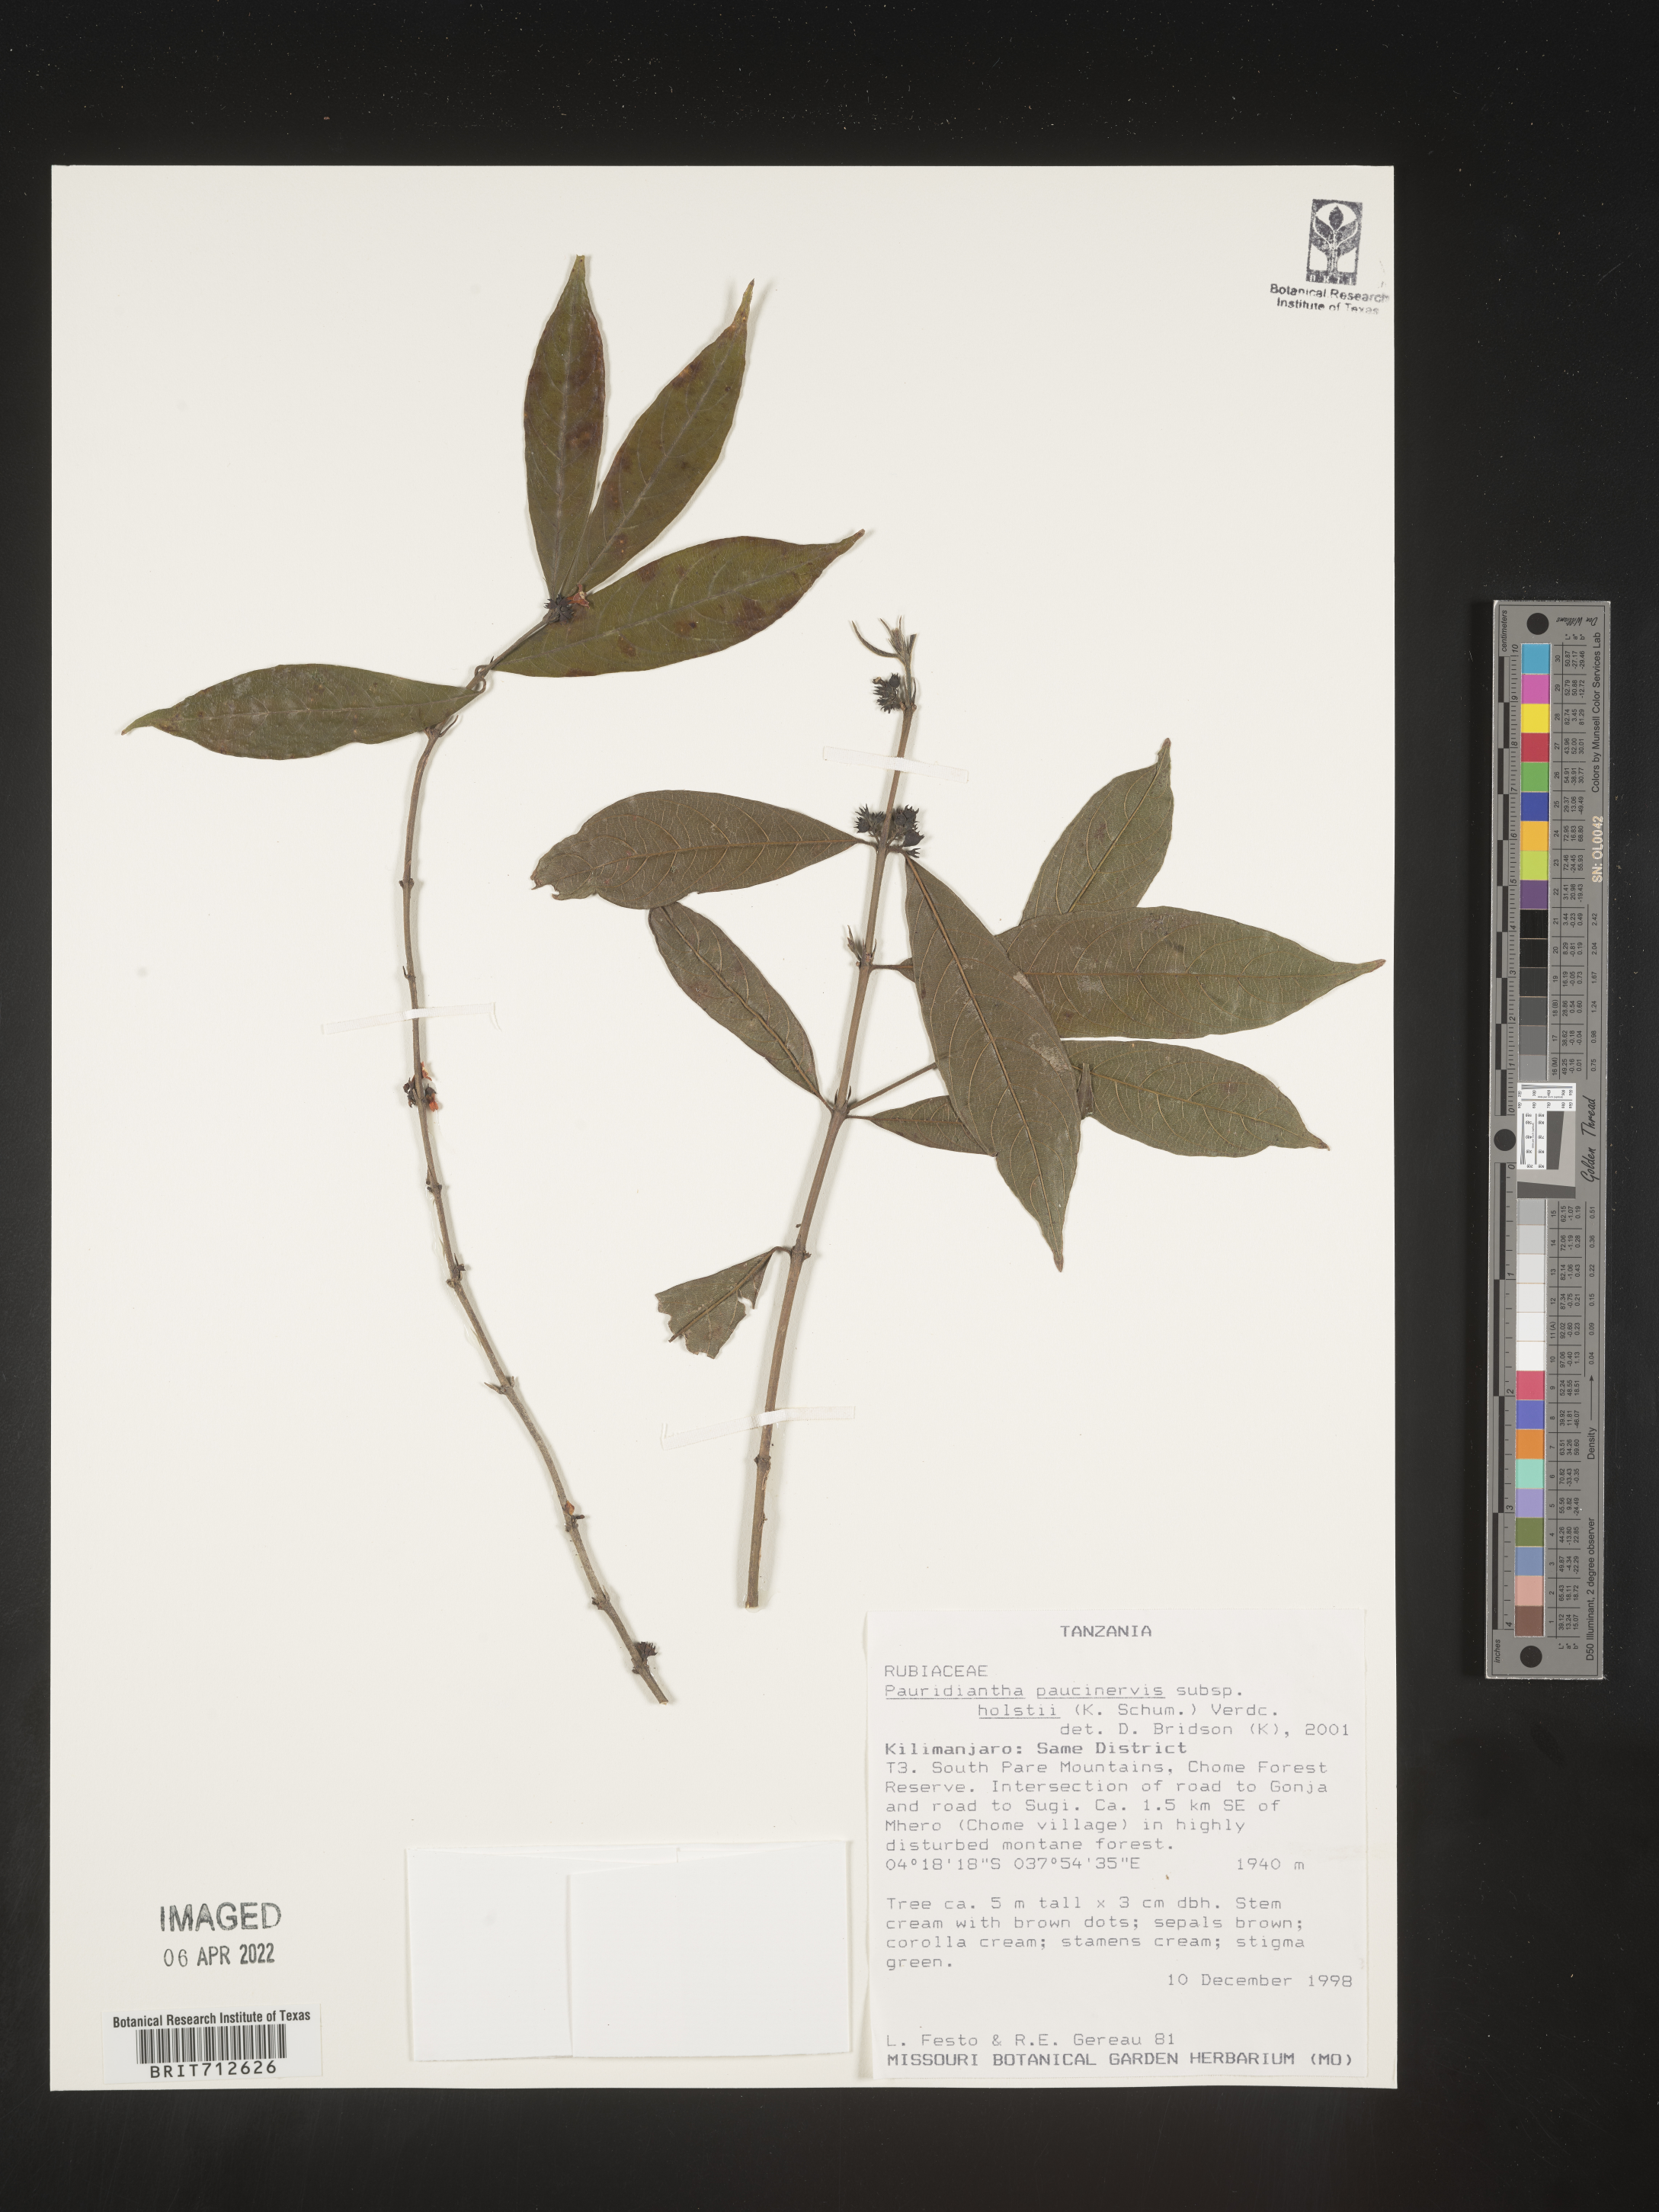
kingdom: Plantae
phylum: Tracheophyta
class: Magnoliopsida
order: Gentianales
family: Rubiaceae
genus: Pauridiantha
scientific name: Pauridiantha
